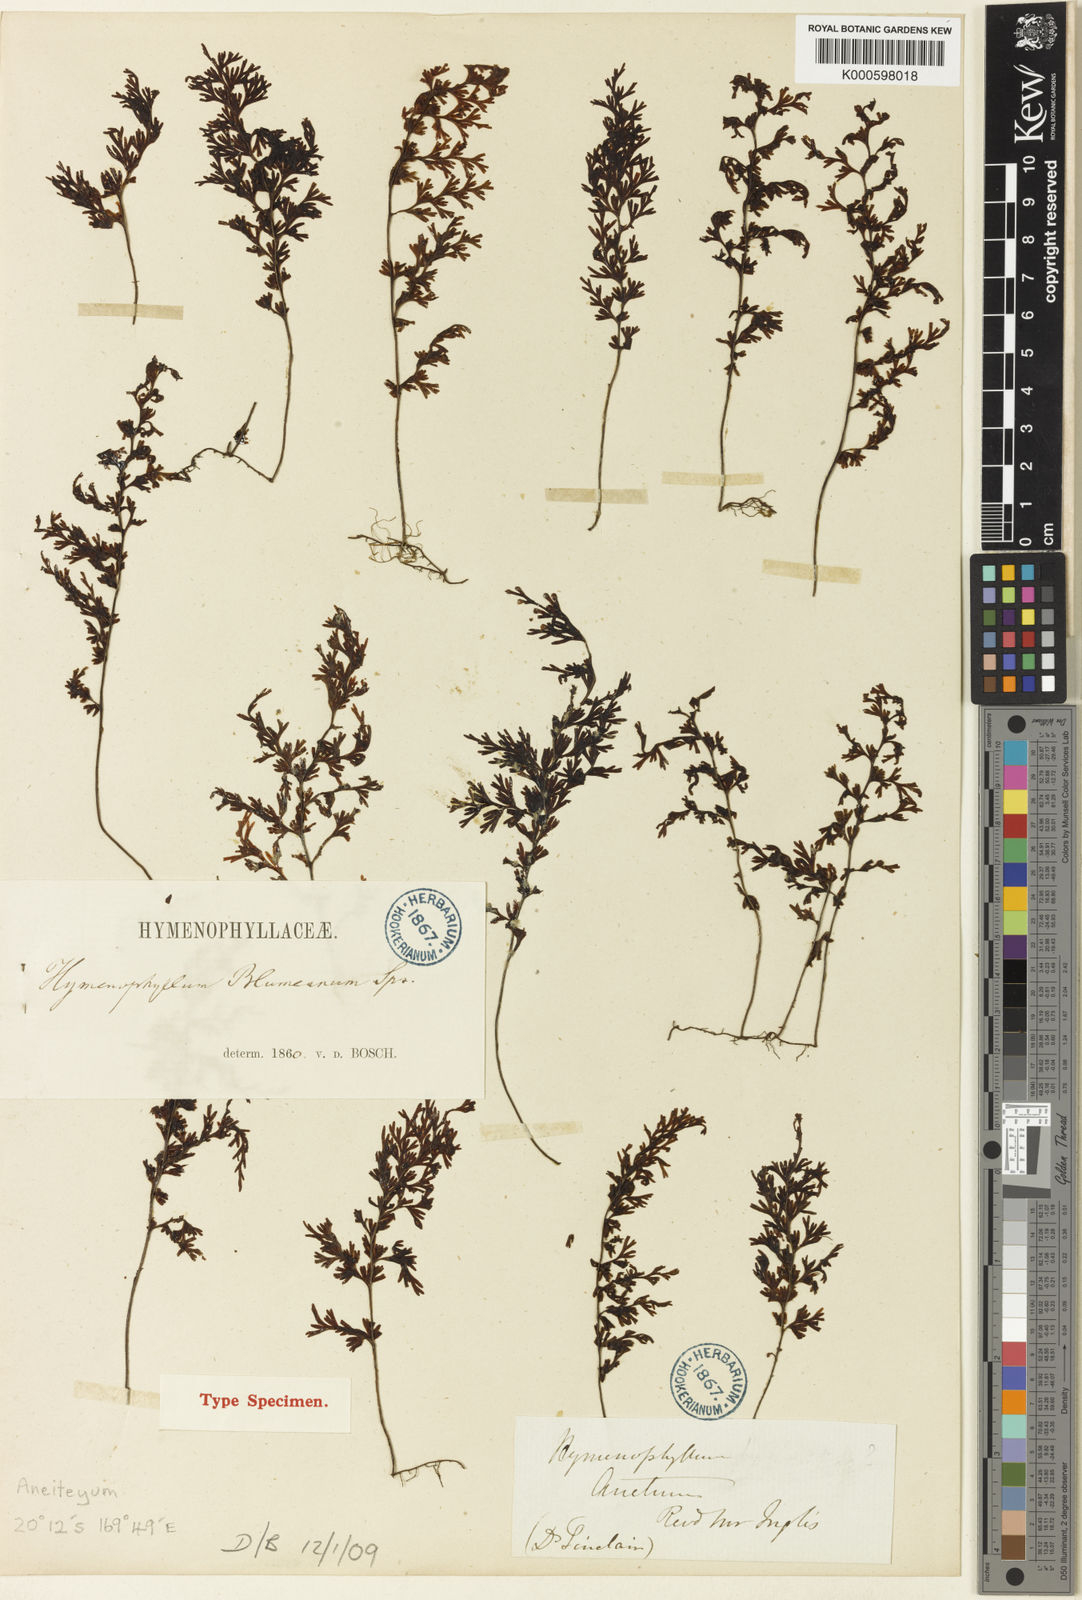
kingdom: Plantae
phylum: Tracheophyta
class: Polypodiopsida
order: Hymenophyllales
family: Hymenophyllaceae
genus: Hymenophyllum
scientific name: Hymenophyllum fumarioides
